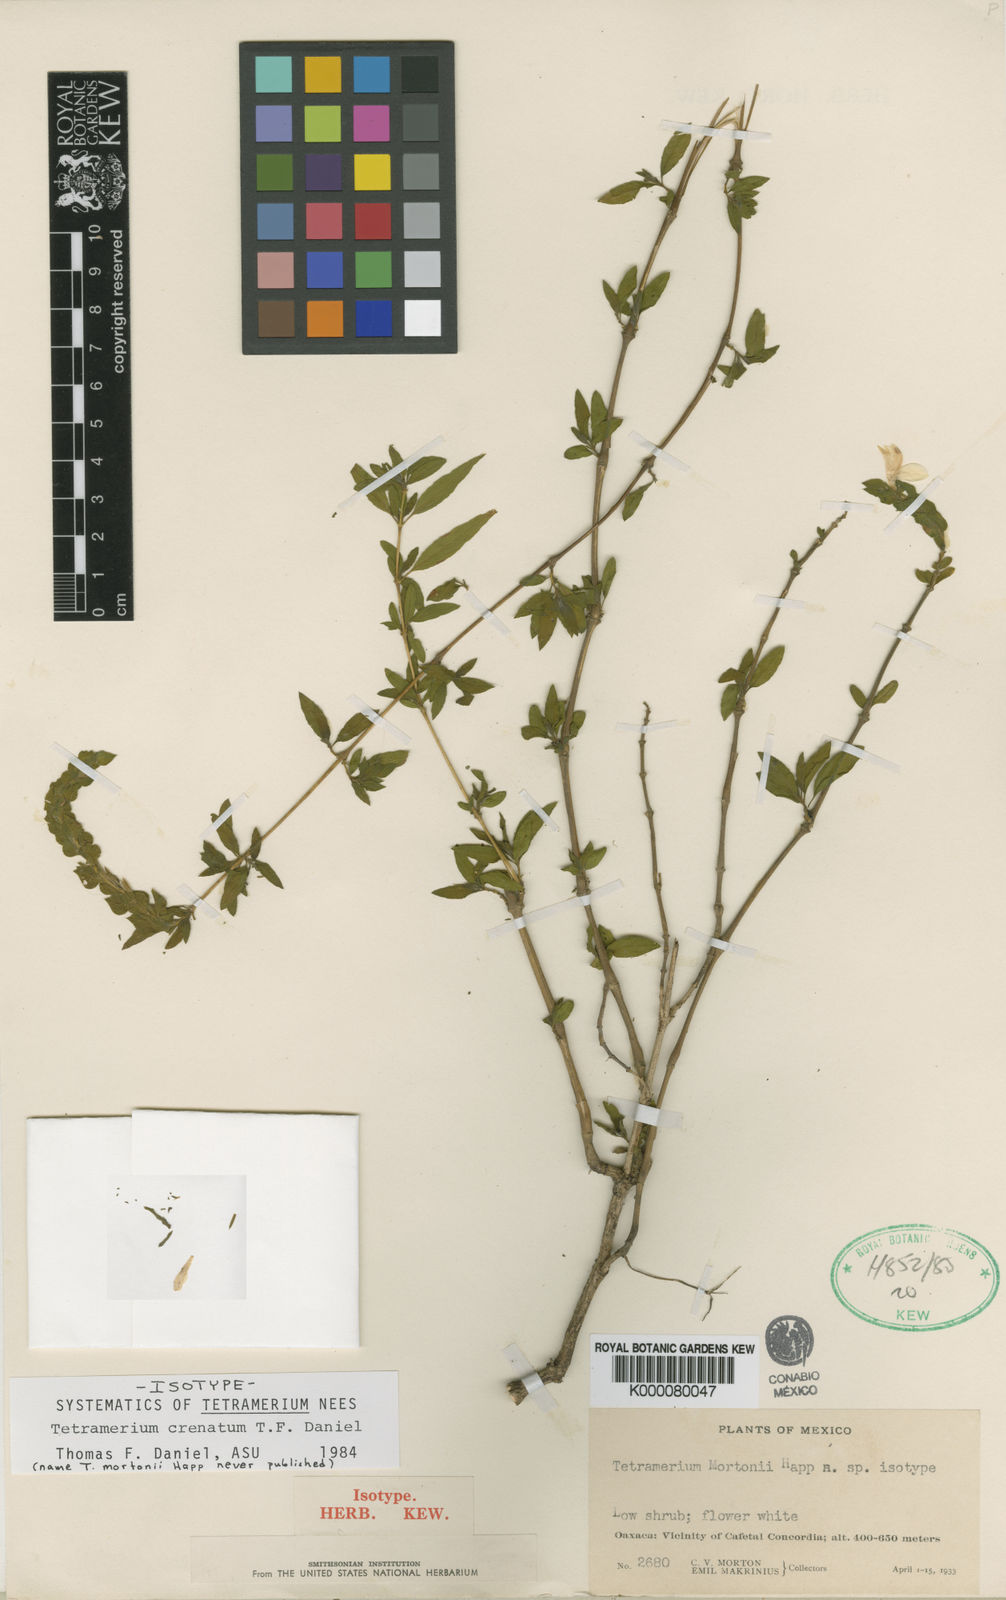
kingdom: Plantae
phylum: Tracheophyta
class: Magnoliopsida
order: Lamiales
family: Acanthaceae
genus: Tetramerium
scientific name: Tetramerium crenatum
